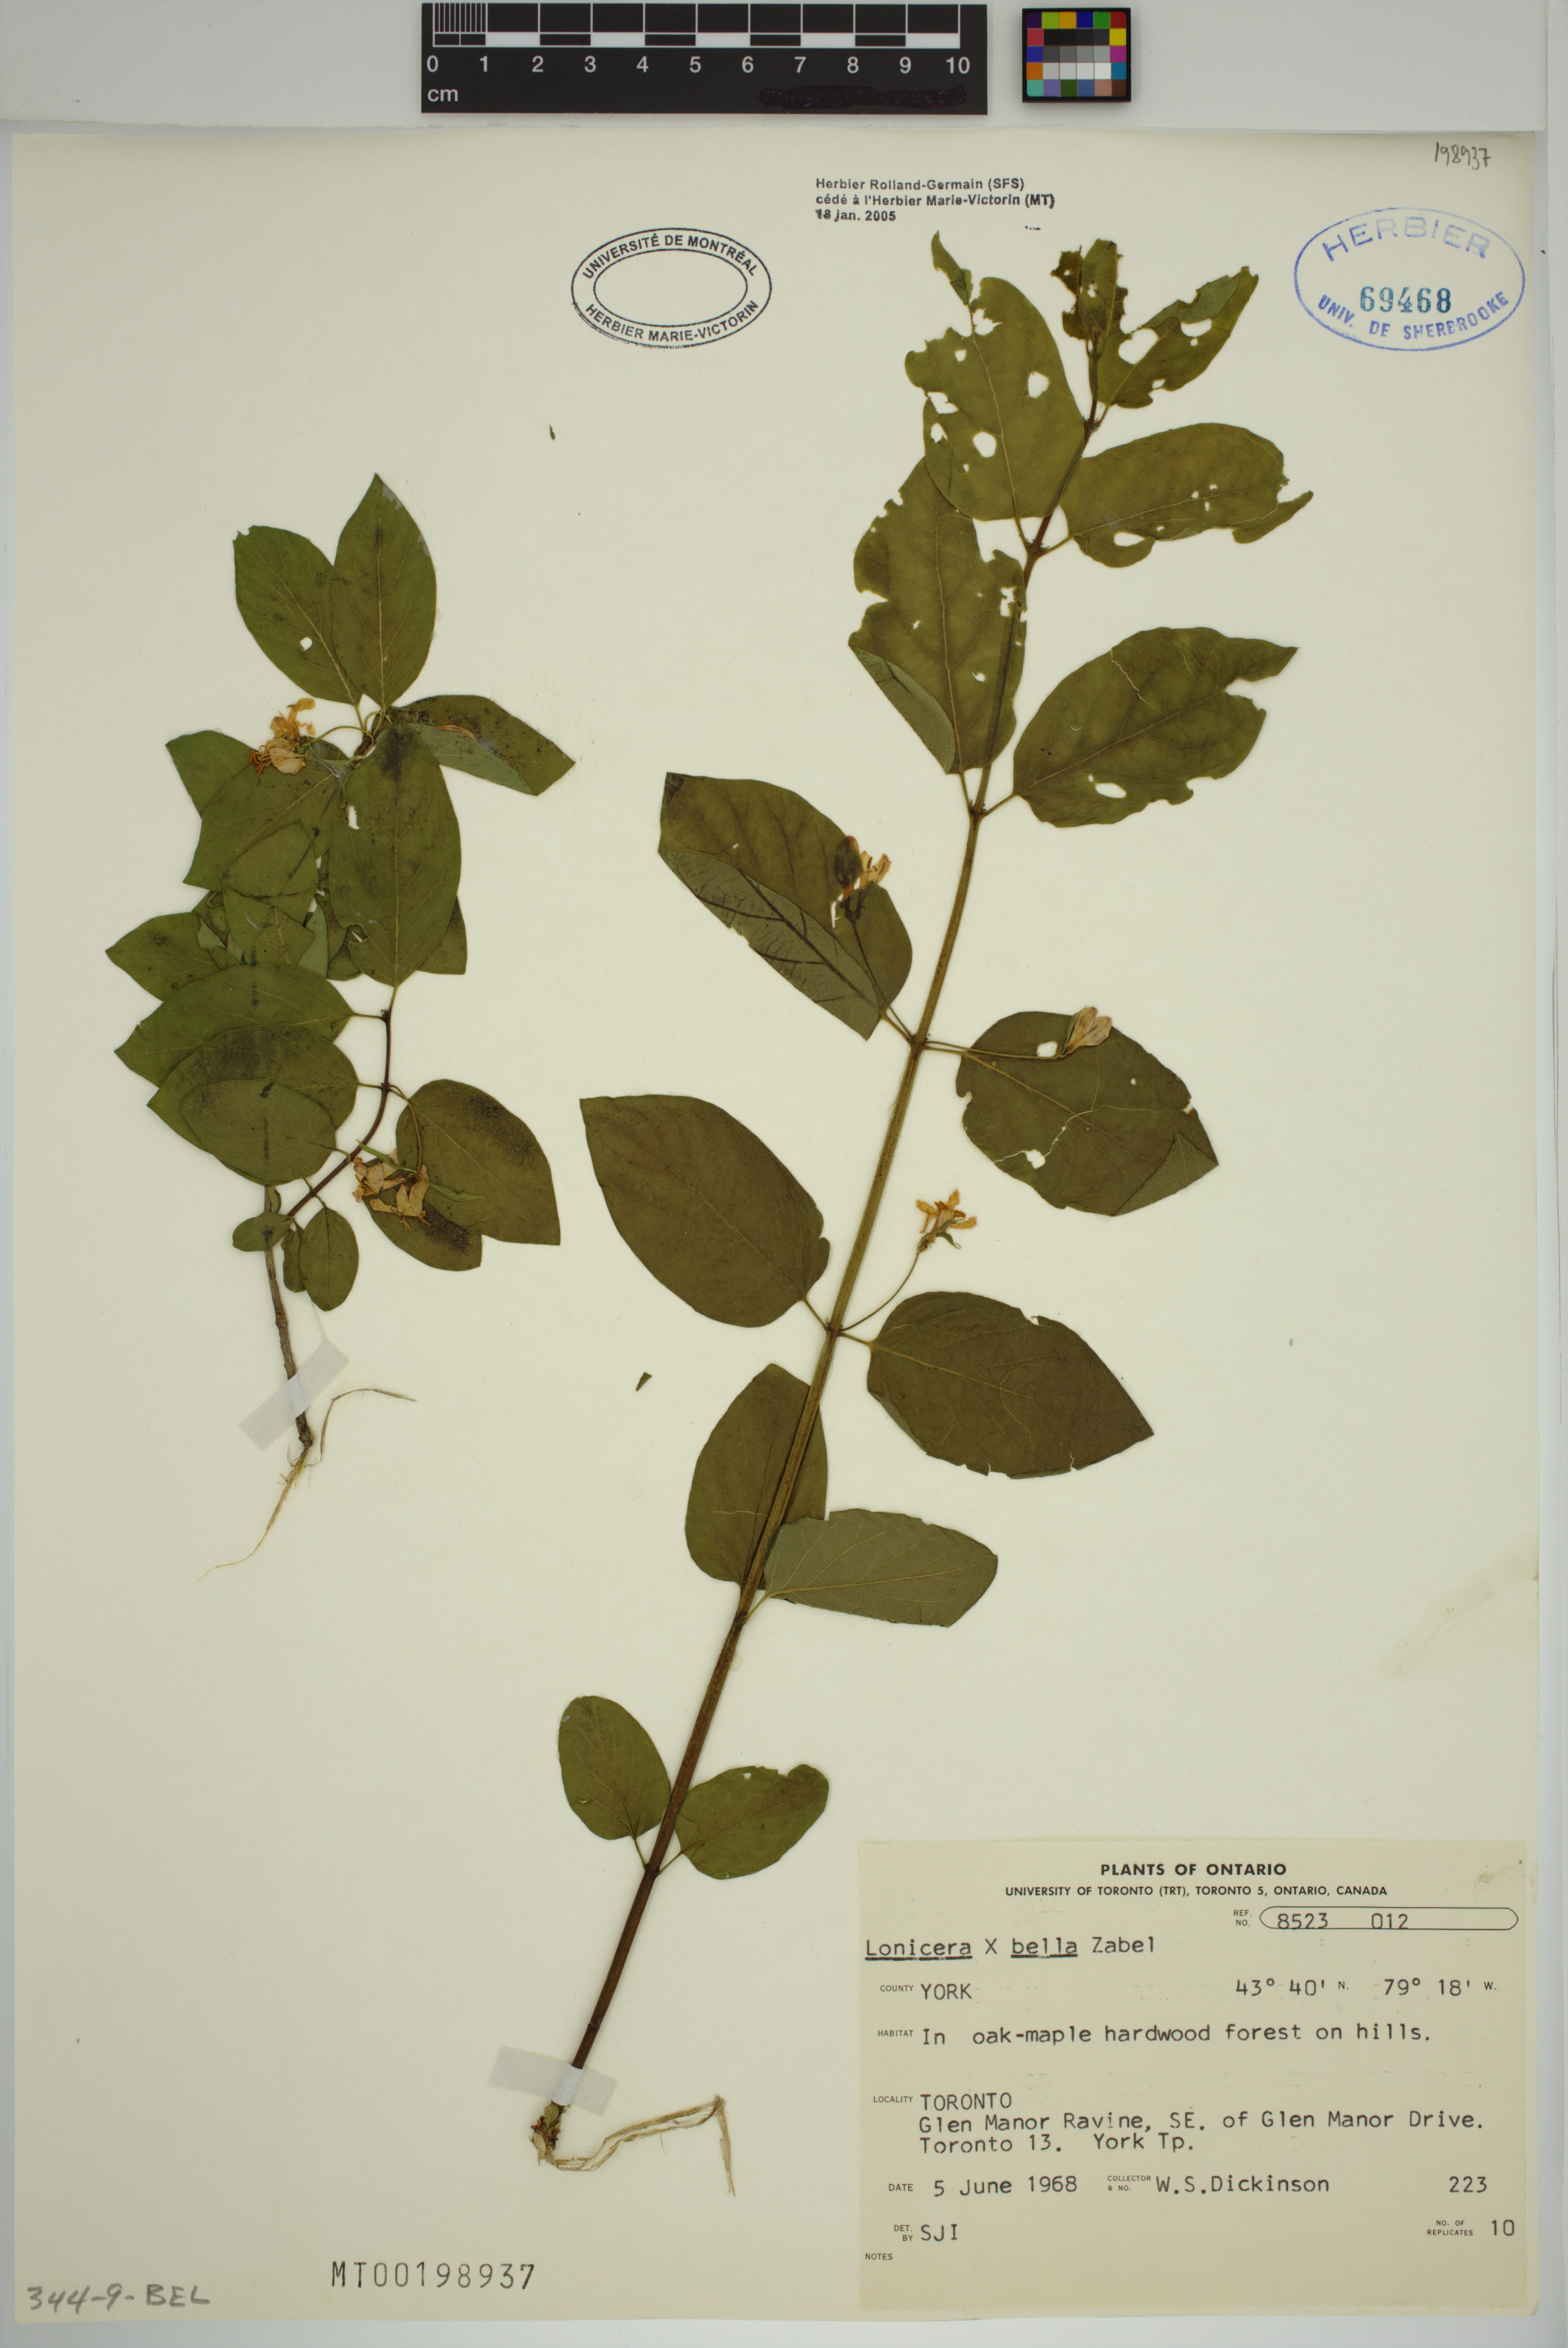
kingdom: Plantae
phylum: Tracheophyta
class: Magnoliopsida
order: Dipsacales
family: Caprifoliaceae
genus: Lonicera
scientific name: Lonicera bella
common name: Bell's honeysuckle
